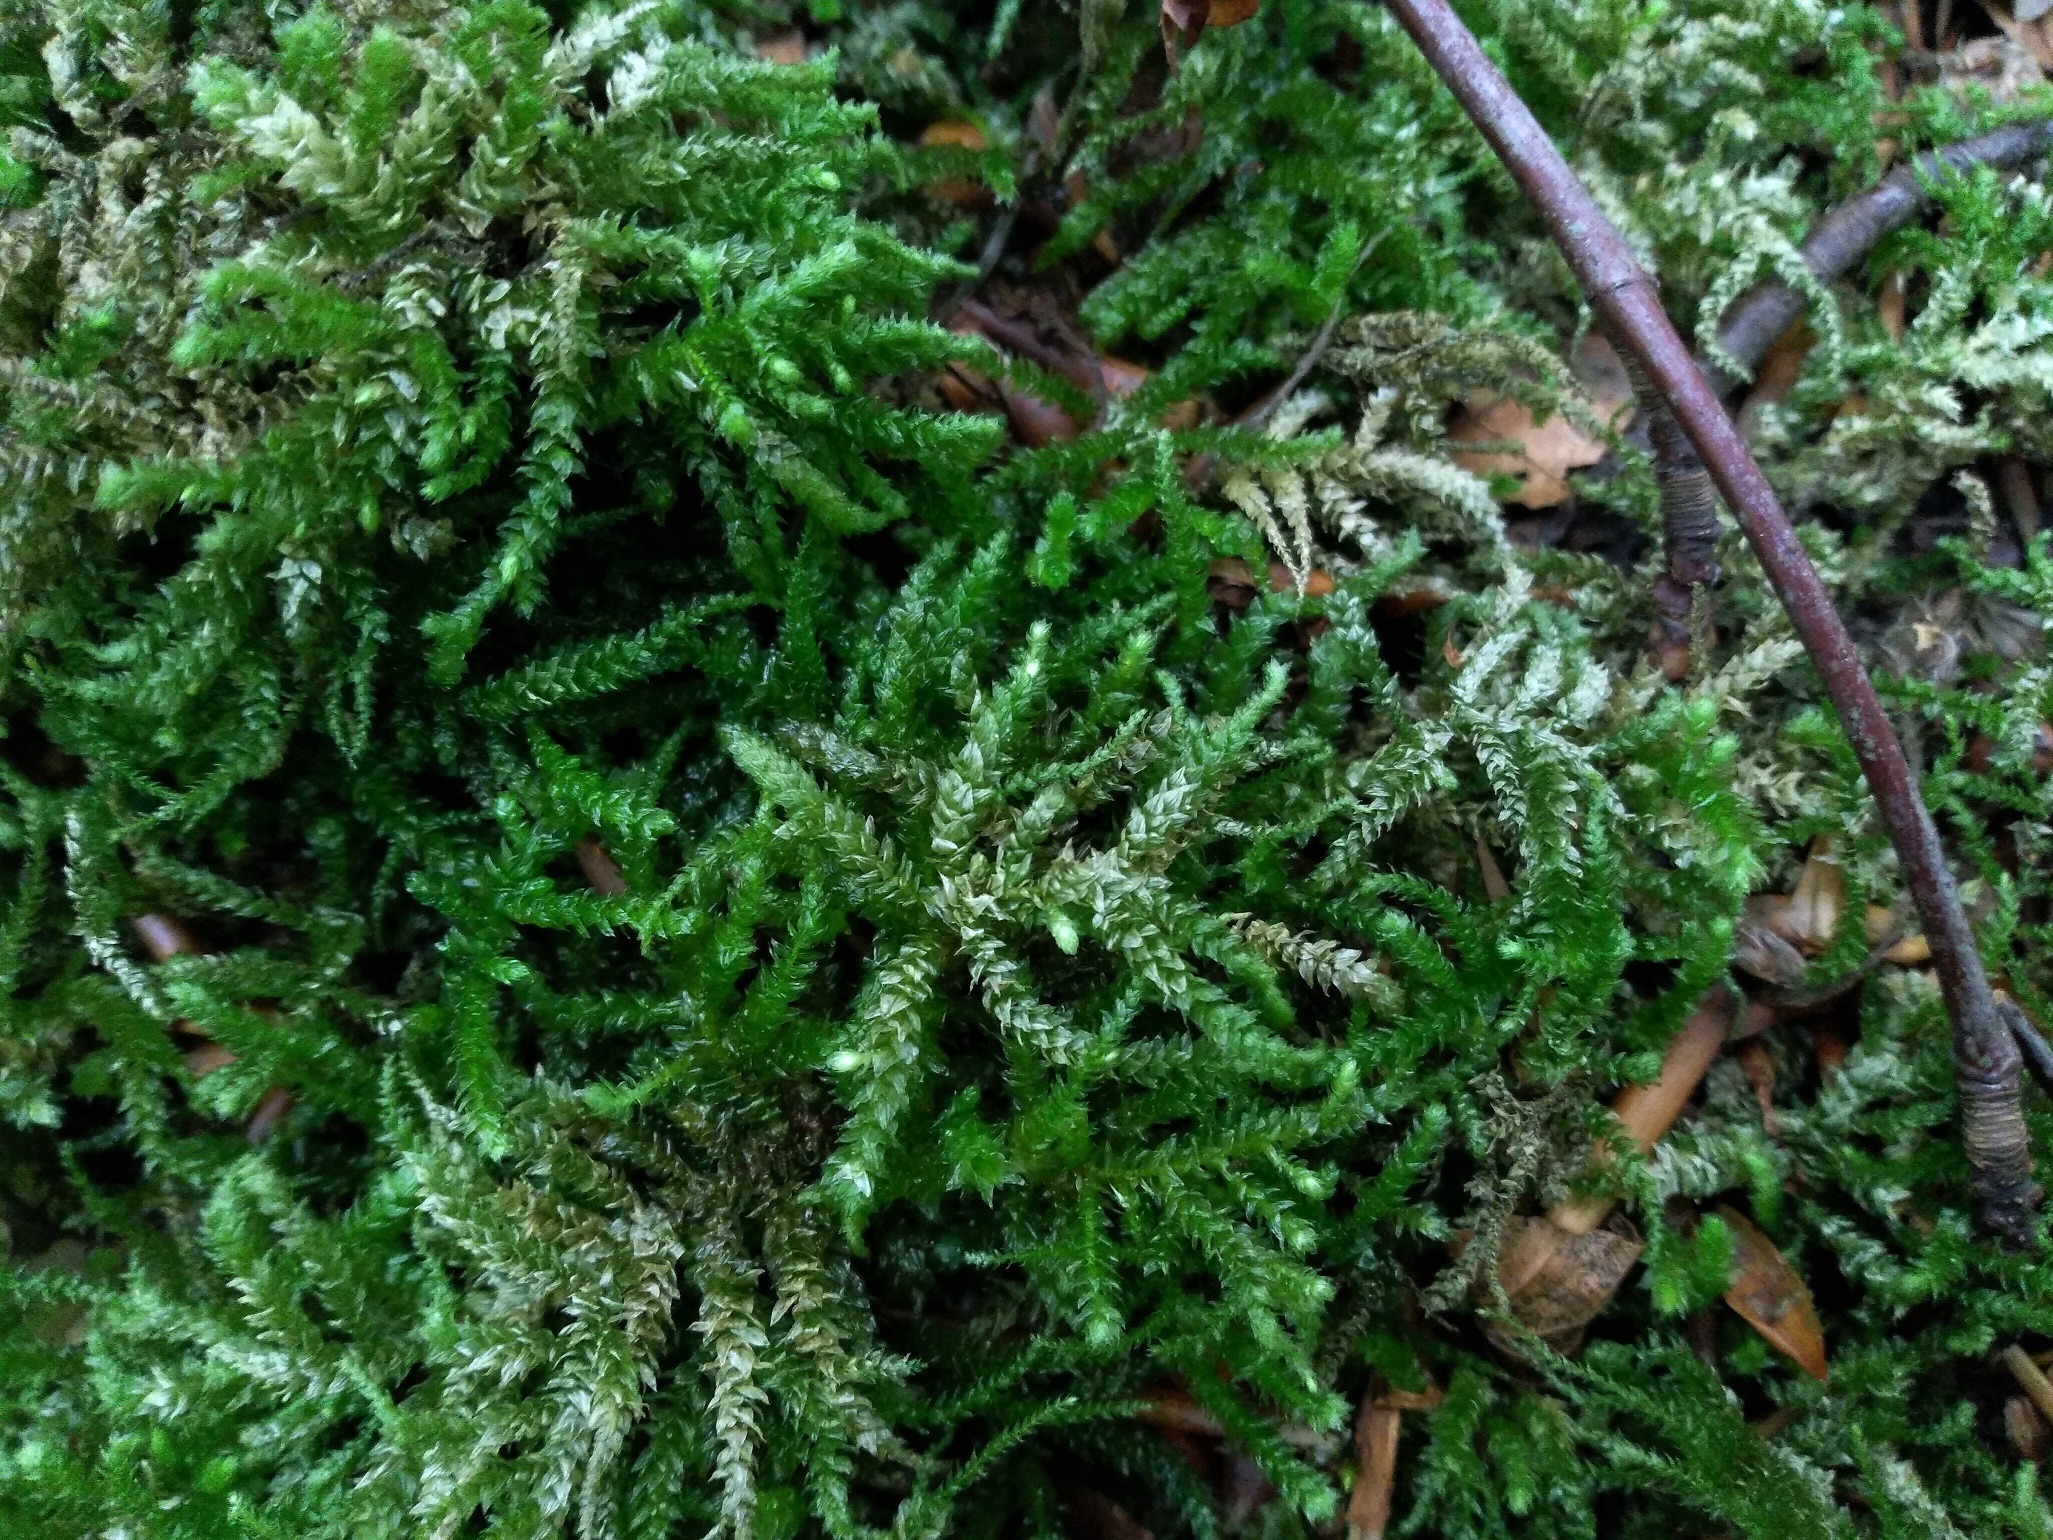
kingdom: Plantae
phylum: Bryophyta
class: Bryopsida
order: Hypnales
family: Brachytheciaceae
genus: Eurhynchium
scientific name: Eurhynchium angustirete
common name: Stor næbmos
